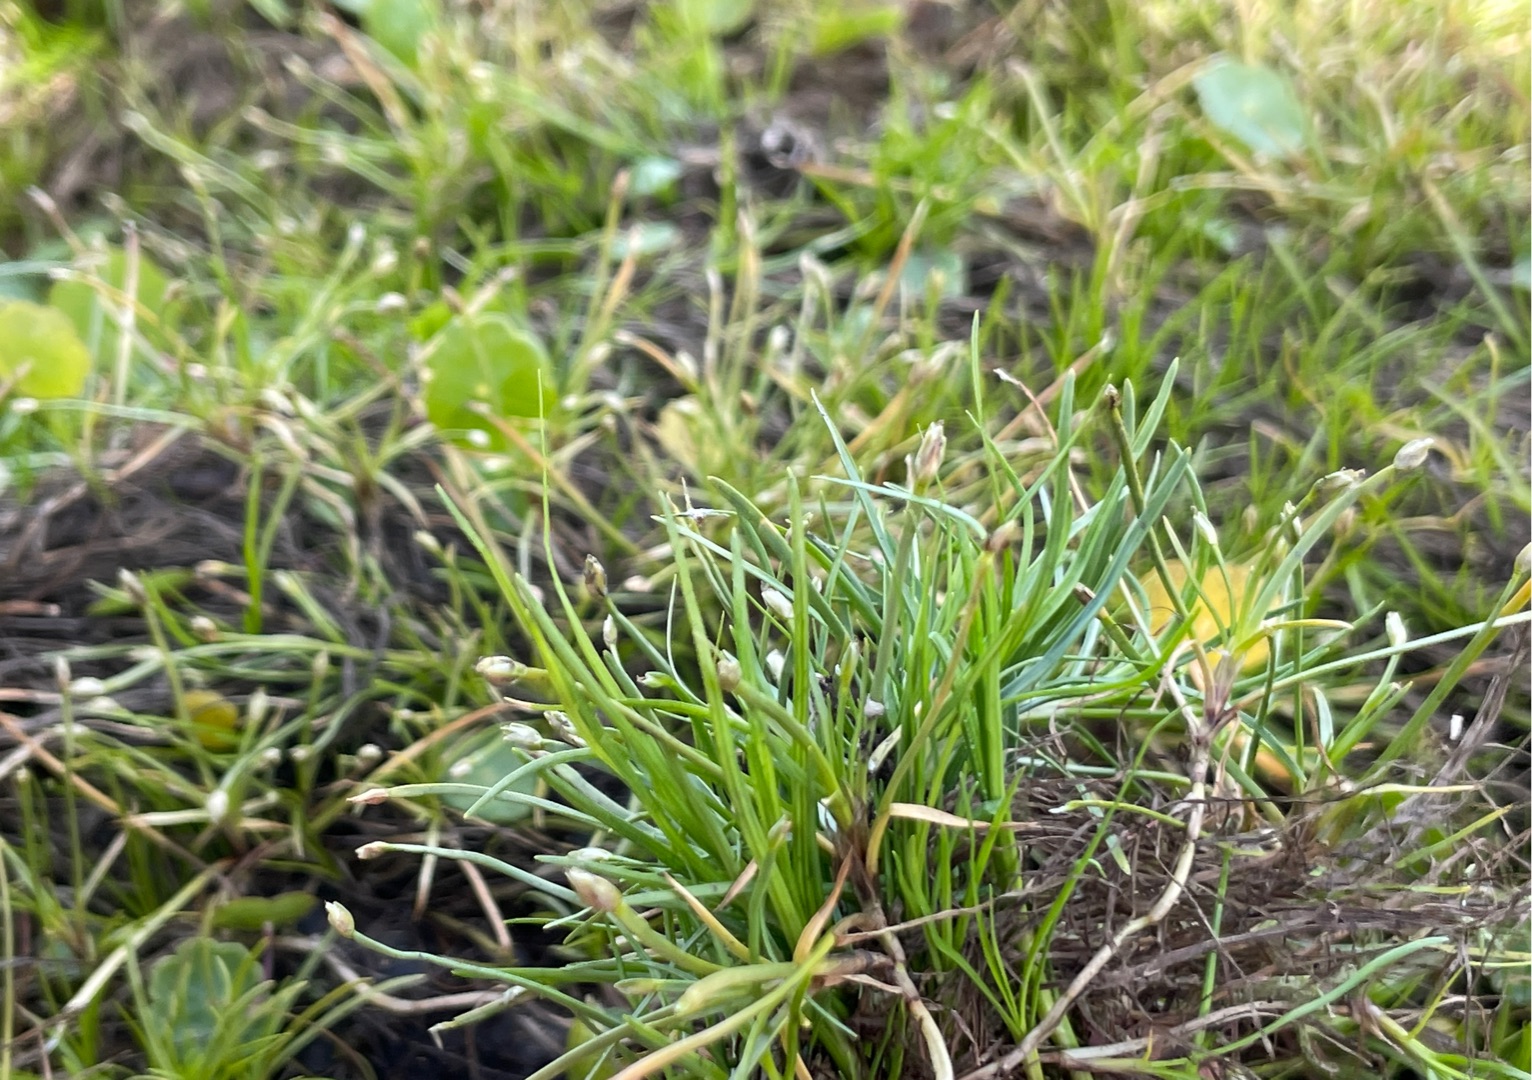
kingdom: Plantae
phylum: Tracheophyta
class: Liliopsida
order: Poales
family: Cyperaceae
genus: Isolepis
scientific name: Isolepis fluitans
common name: Flydende kogleaks
